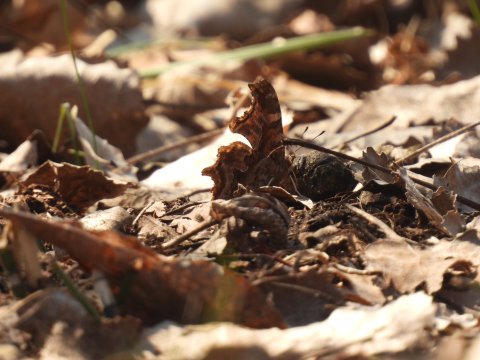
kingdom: Animalia
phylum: Arthropoda
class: Insecta
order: Lepidoptera
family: Nymphalidae
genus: Polygonia
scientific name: Polygonia comma
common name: Eastern Comma
